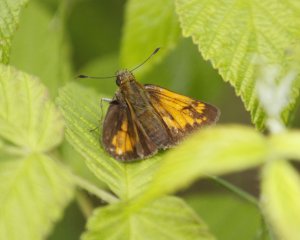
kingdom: Animalia
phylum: Arthropoda
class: Insecta
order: Lepidoptera
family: Hesperiidae
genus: Lon
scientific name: Lon hobomok
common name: Hobomok Skipper
